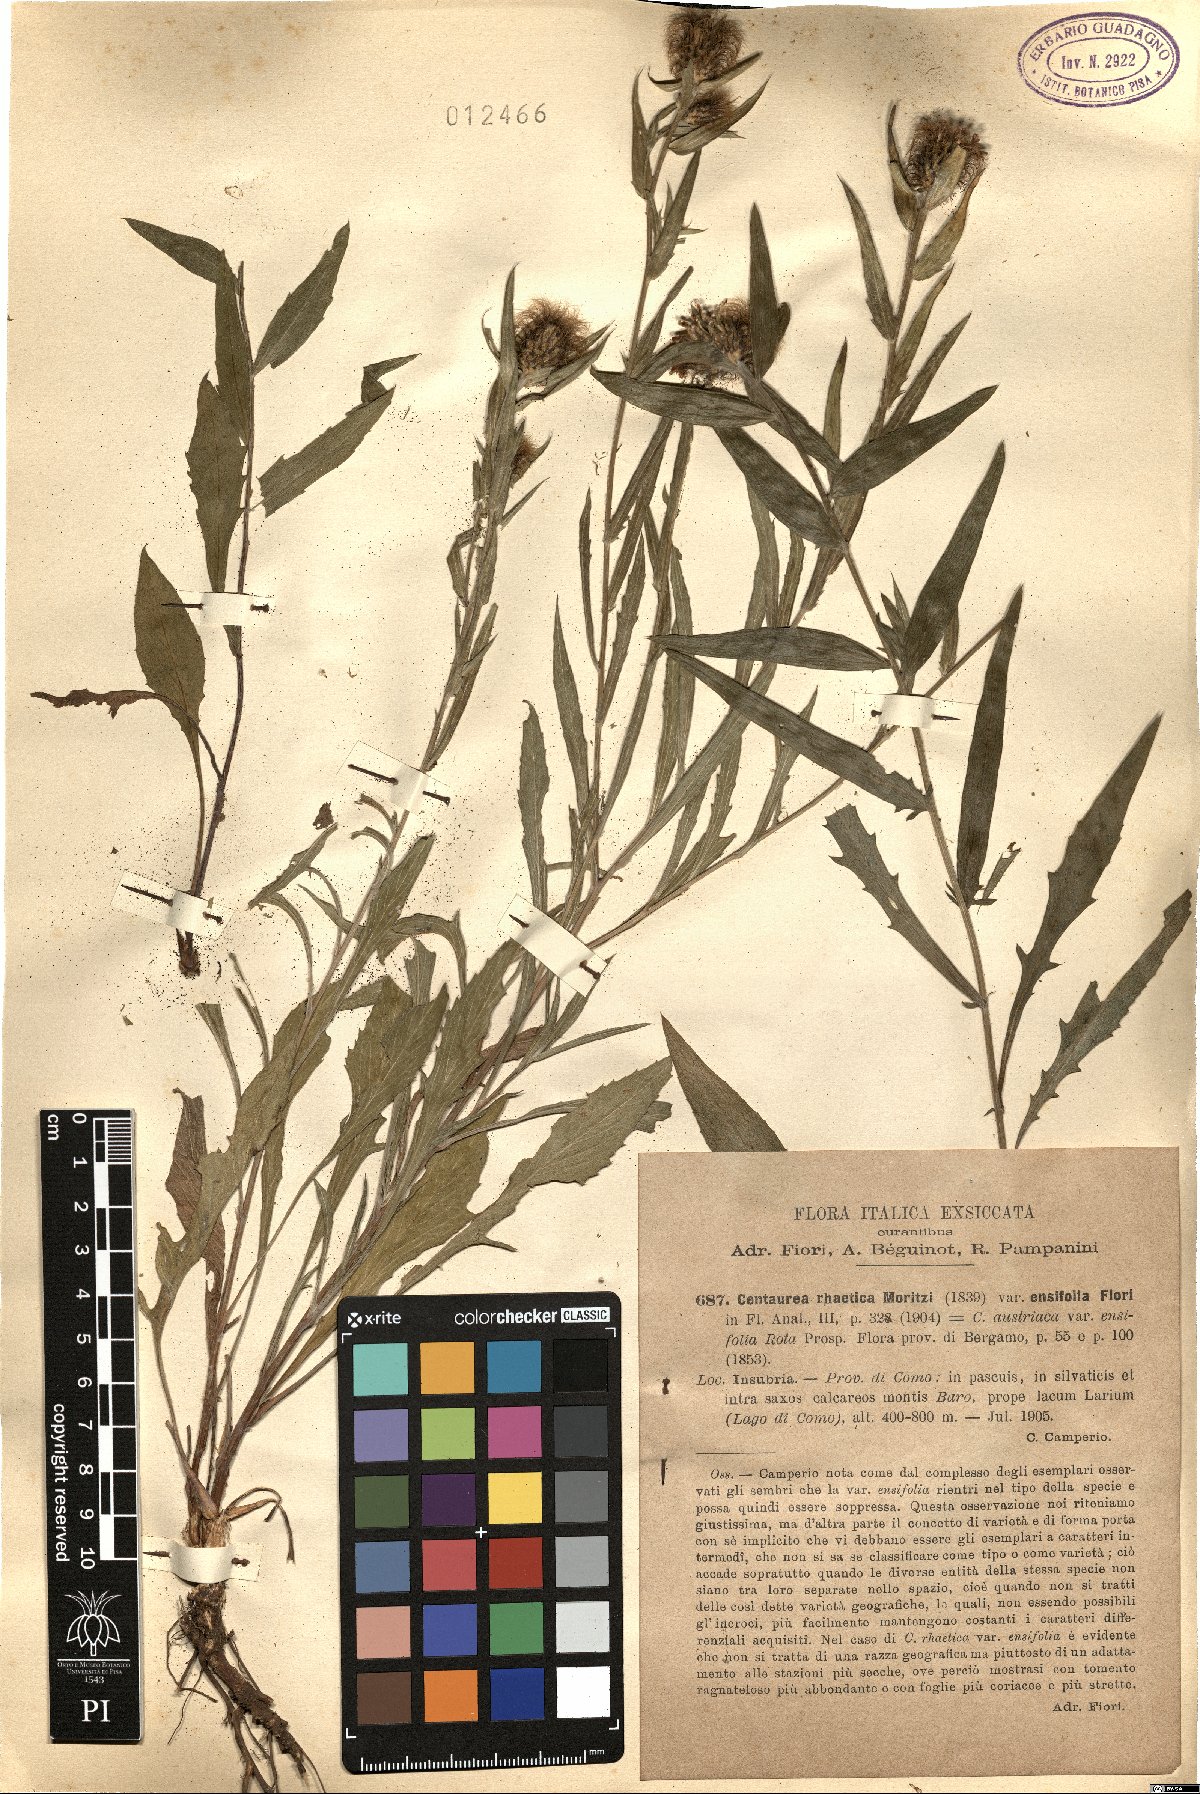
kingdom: Plantae
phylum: Tracheophyta
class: Magnoliopsida
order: Asterales
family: Asteraceae
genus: Centaurea
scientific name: Centaurea rhaetica
